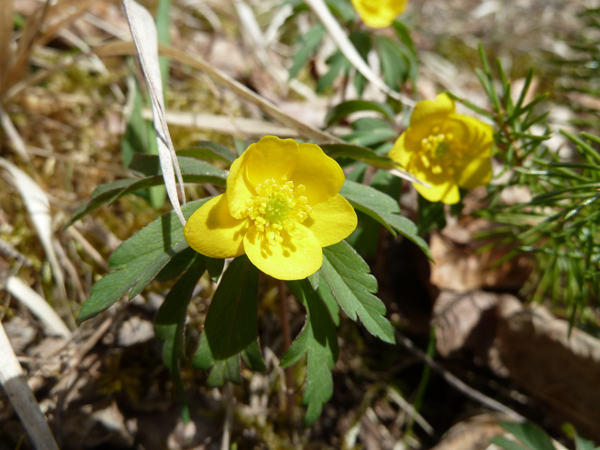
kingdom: Plantae
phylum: Tracheophyta
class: Magnoliopsida
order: Ranunculales
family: Ranunculaceae
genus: Anemone
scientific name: Anemone ranunculoides
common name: Yellow anemone
